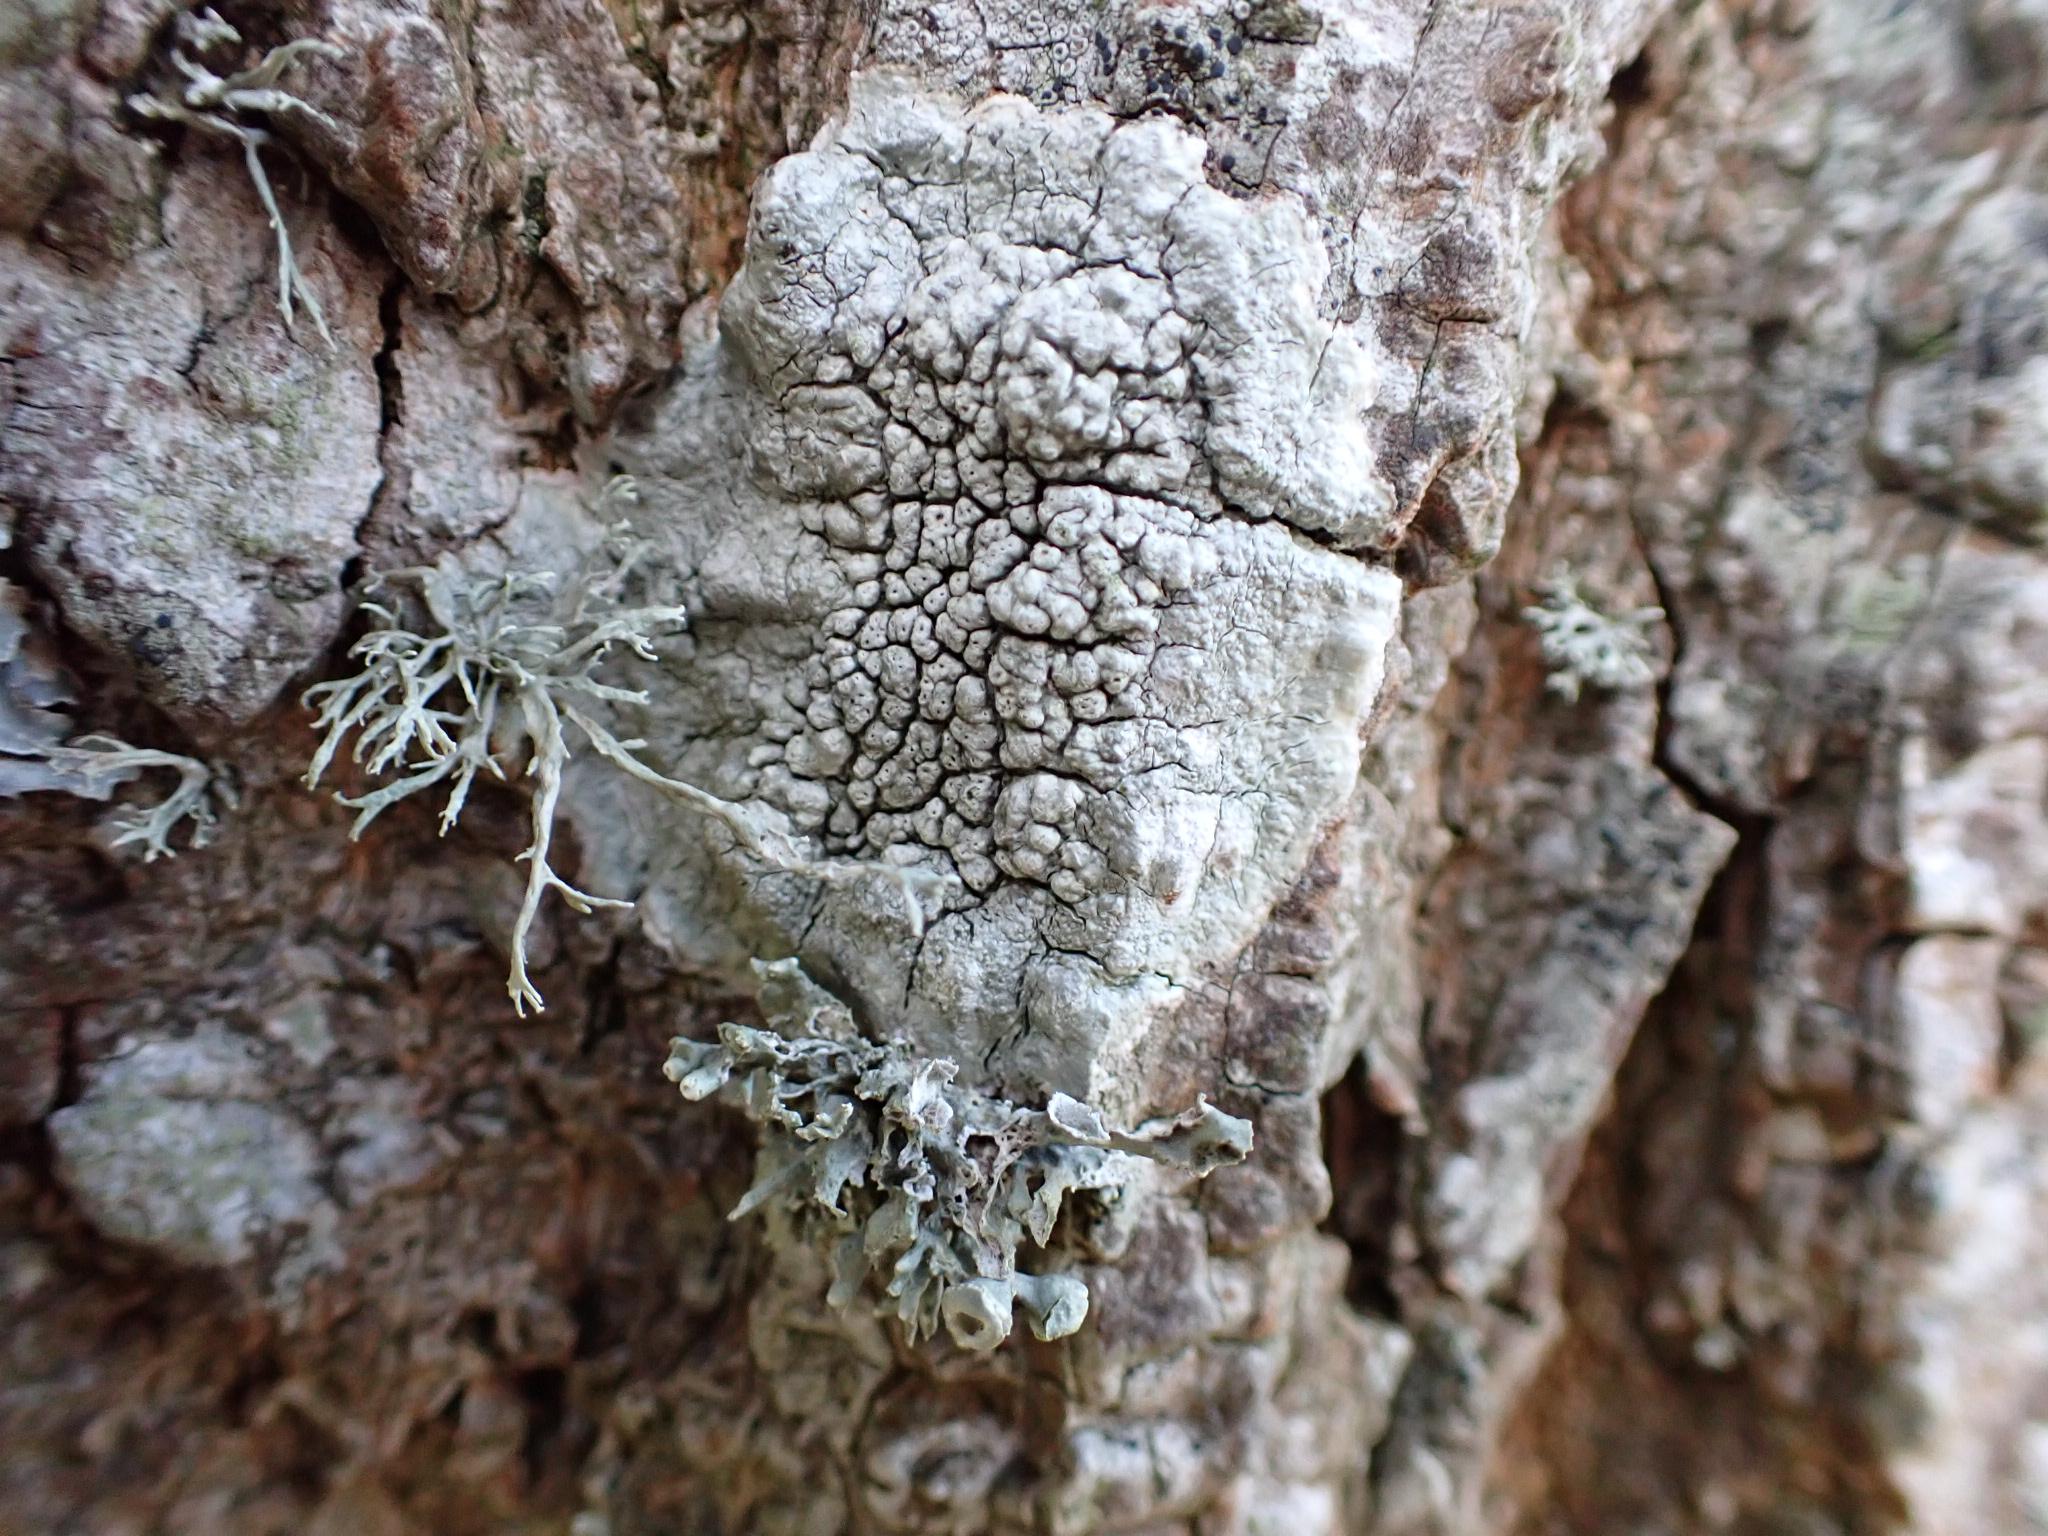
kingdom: Fungi
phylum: Ascomycota
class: Lecanoromycetes
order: Pertusariales
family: Pertusariaceae
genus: Pertusaria
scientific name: Pertusaria pertusa
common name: almindelig prikvortelav
